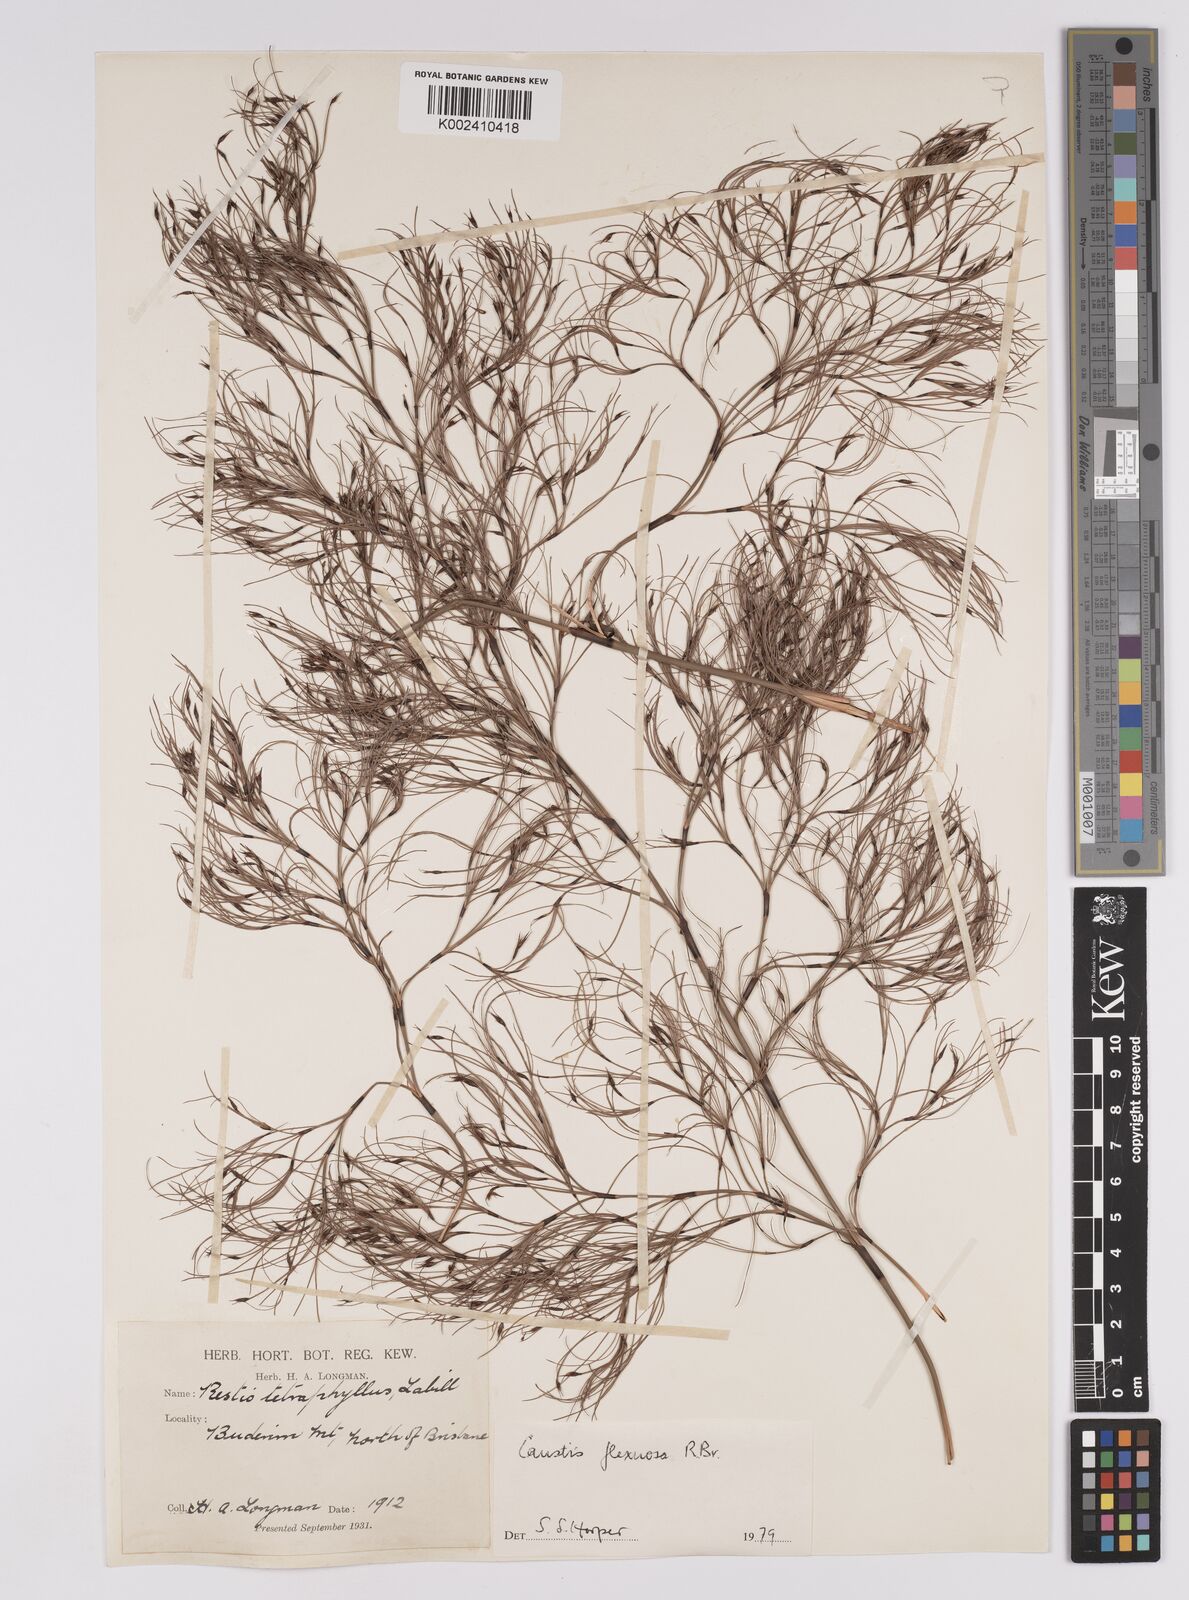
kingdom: Plantae
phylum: Tracheophyta
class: Liliopsida
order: Poales
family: Cyperaceae
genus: Caustis
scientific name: Caustis flexuosa
